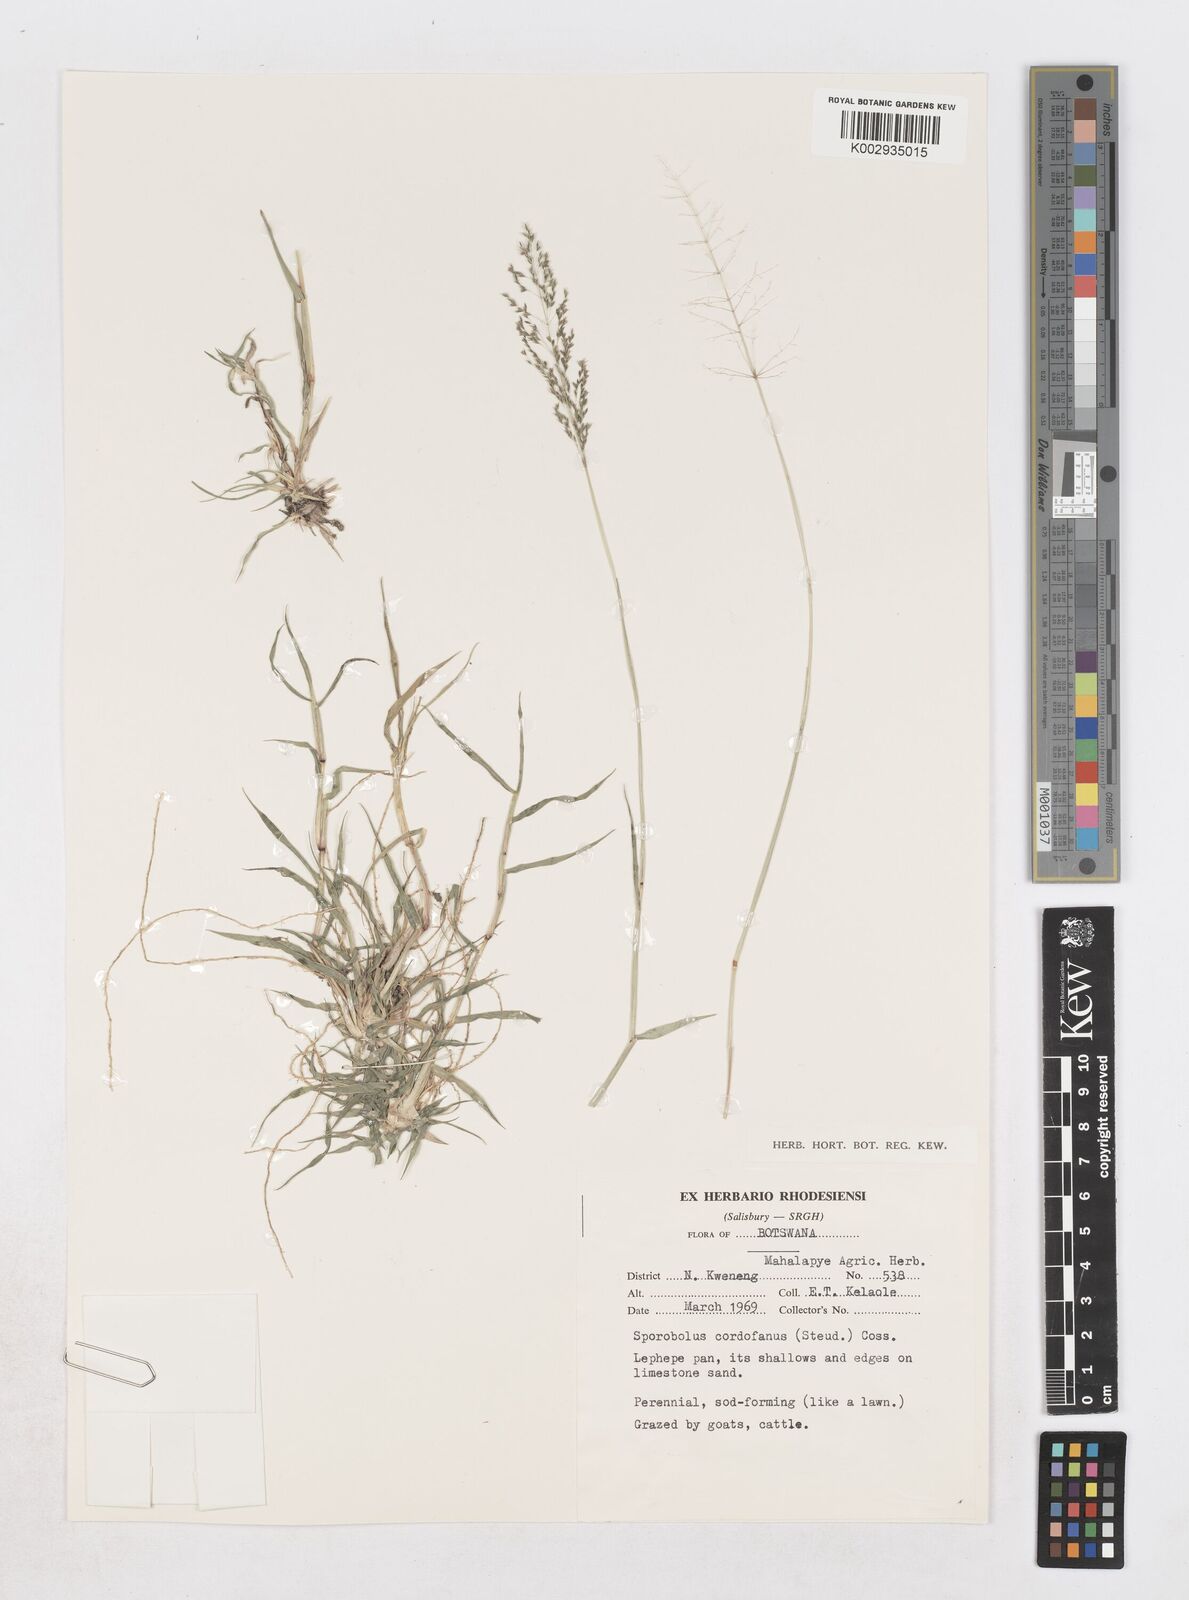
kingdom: Plantae
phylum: Tracheophyta
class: Liliopsida
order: Poales
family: Poaceae
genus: Sporobolus
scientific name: Sporobolus ioclados
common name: Pan dropseed
